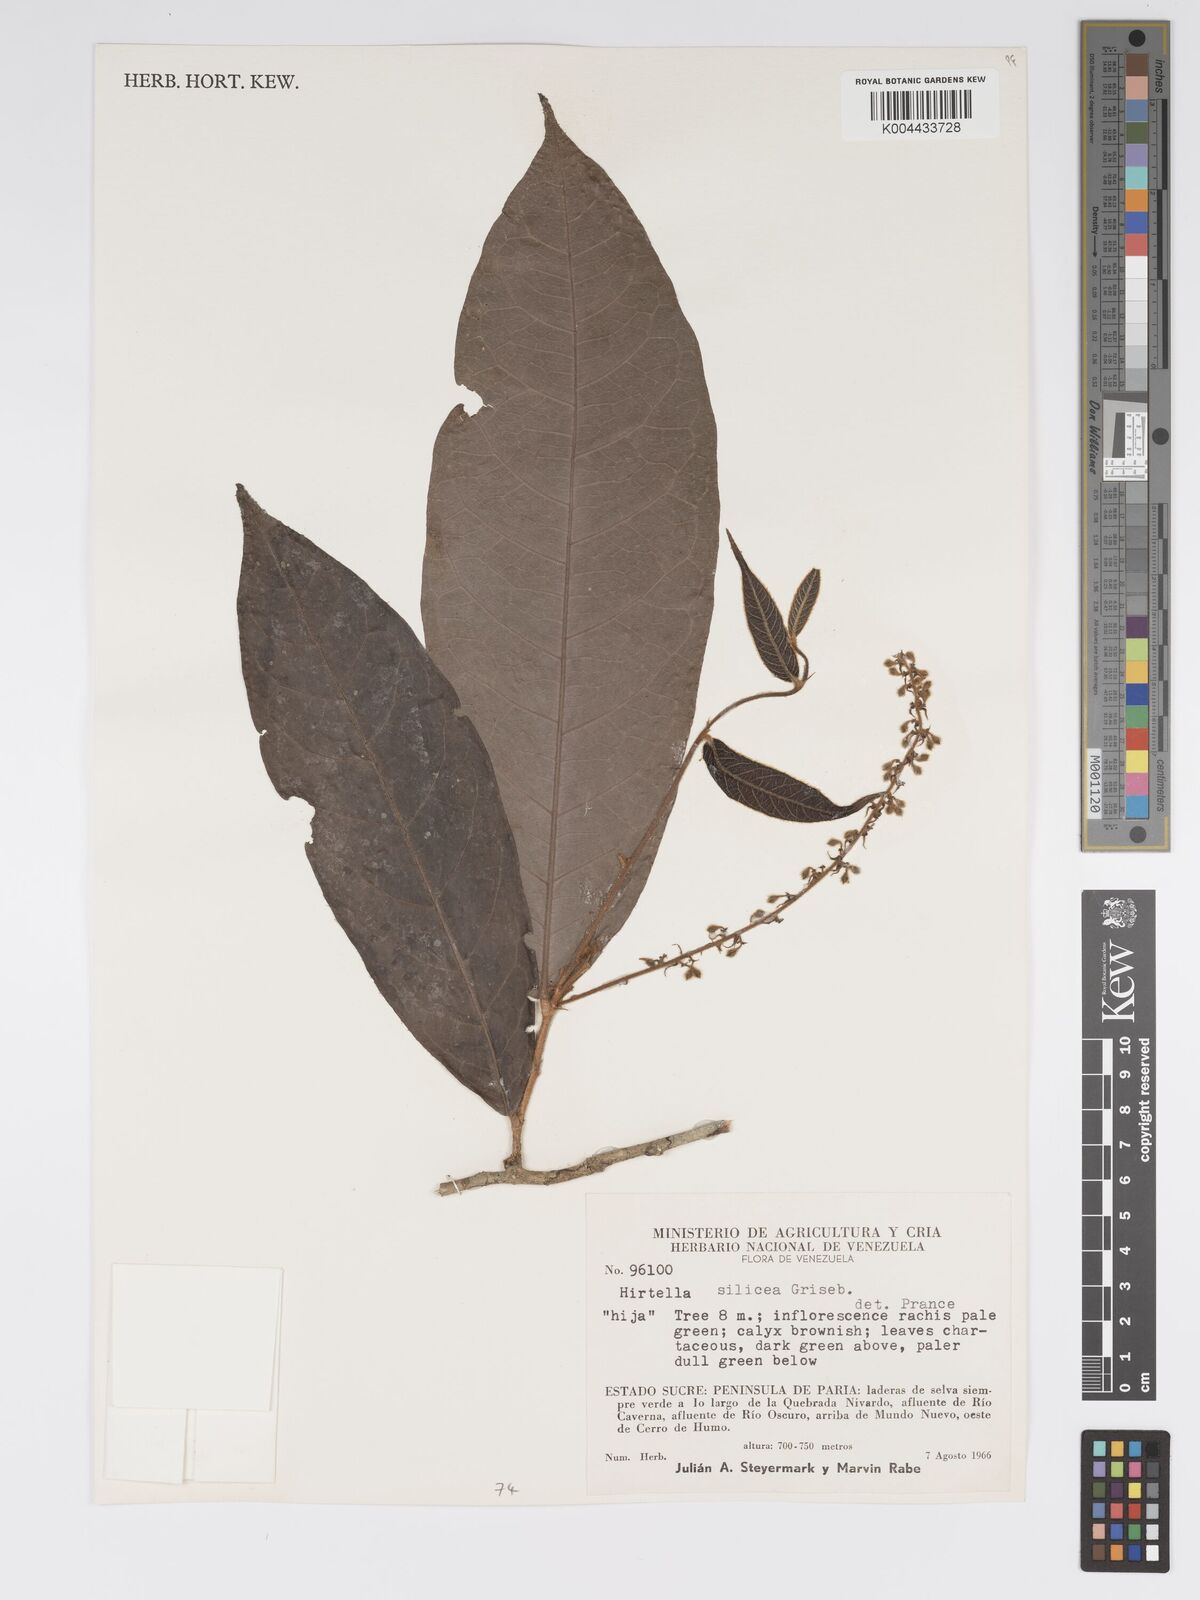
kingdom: Plantae
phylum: Tracheophyta
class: Magnoliopsida
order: Malpighiales
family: Chrysobalanaceae
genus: Hirtella
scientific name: Hirtella silicea
